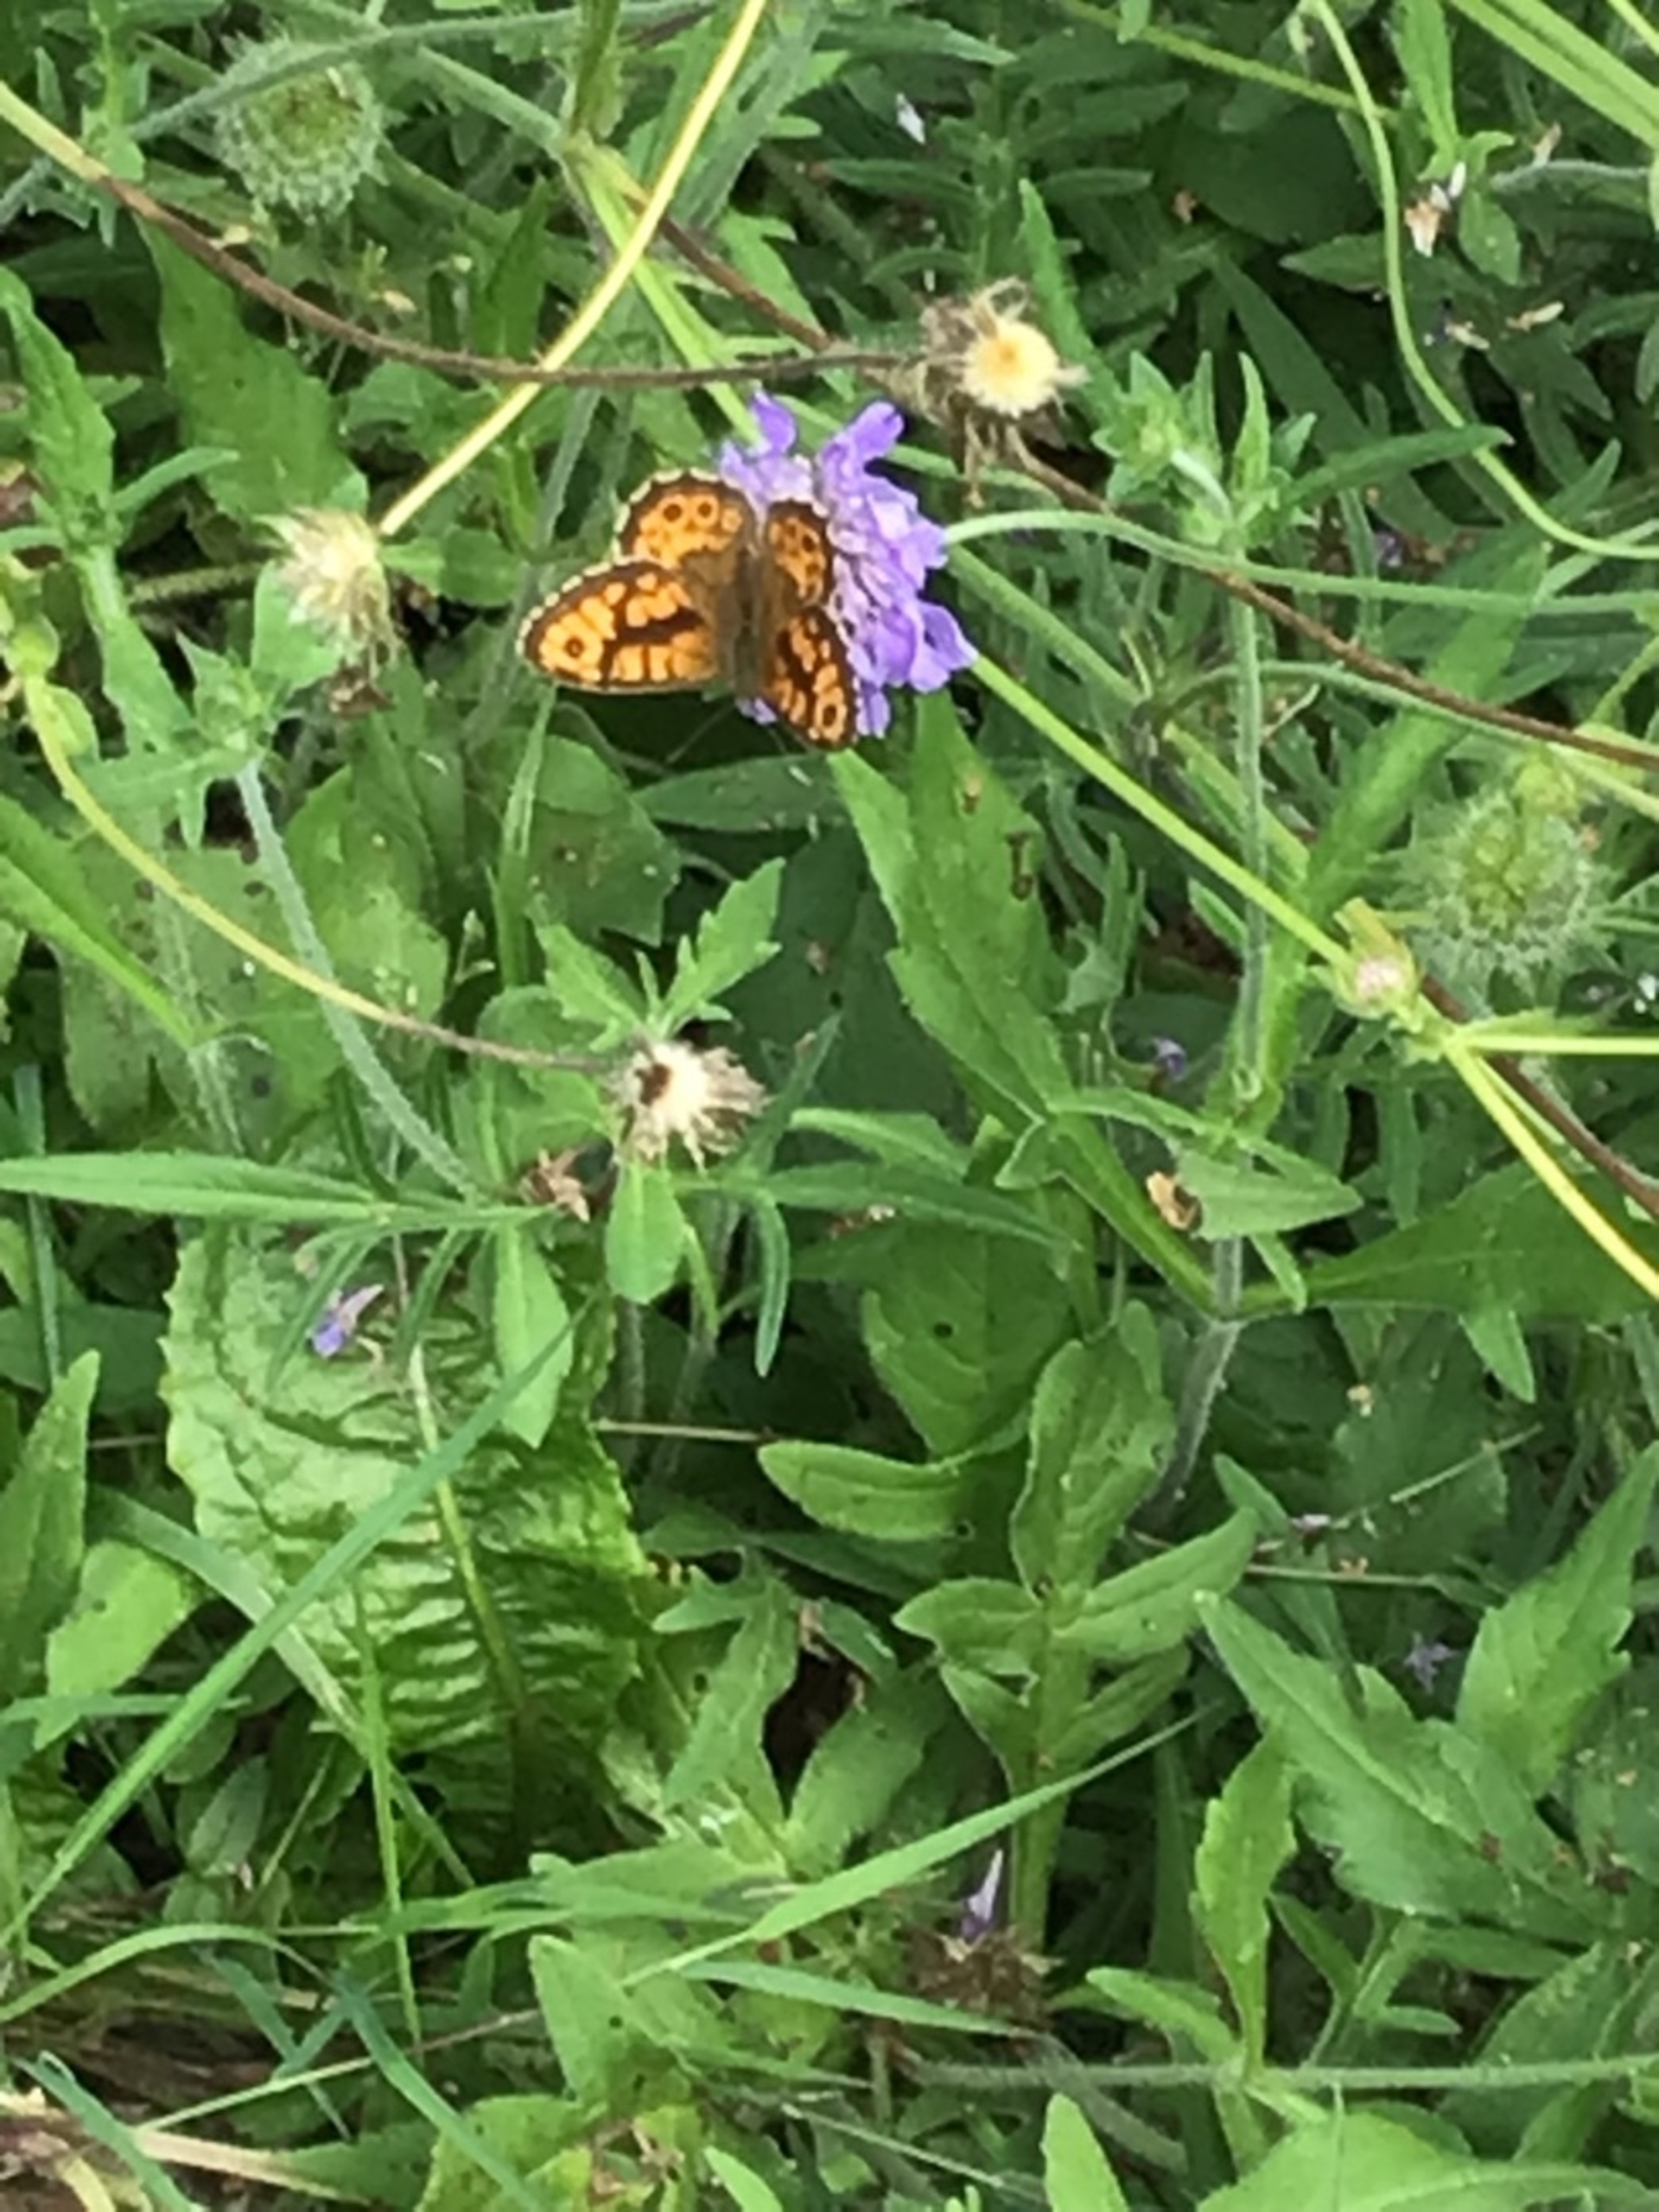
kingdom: Animalia
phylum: Arthropoda
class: Insecta
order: Lepidoptera
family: Nymphalidae
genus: Pararge
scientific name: Pararge Lasiommata megera
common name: Vejrandøje
